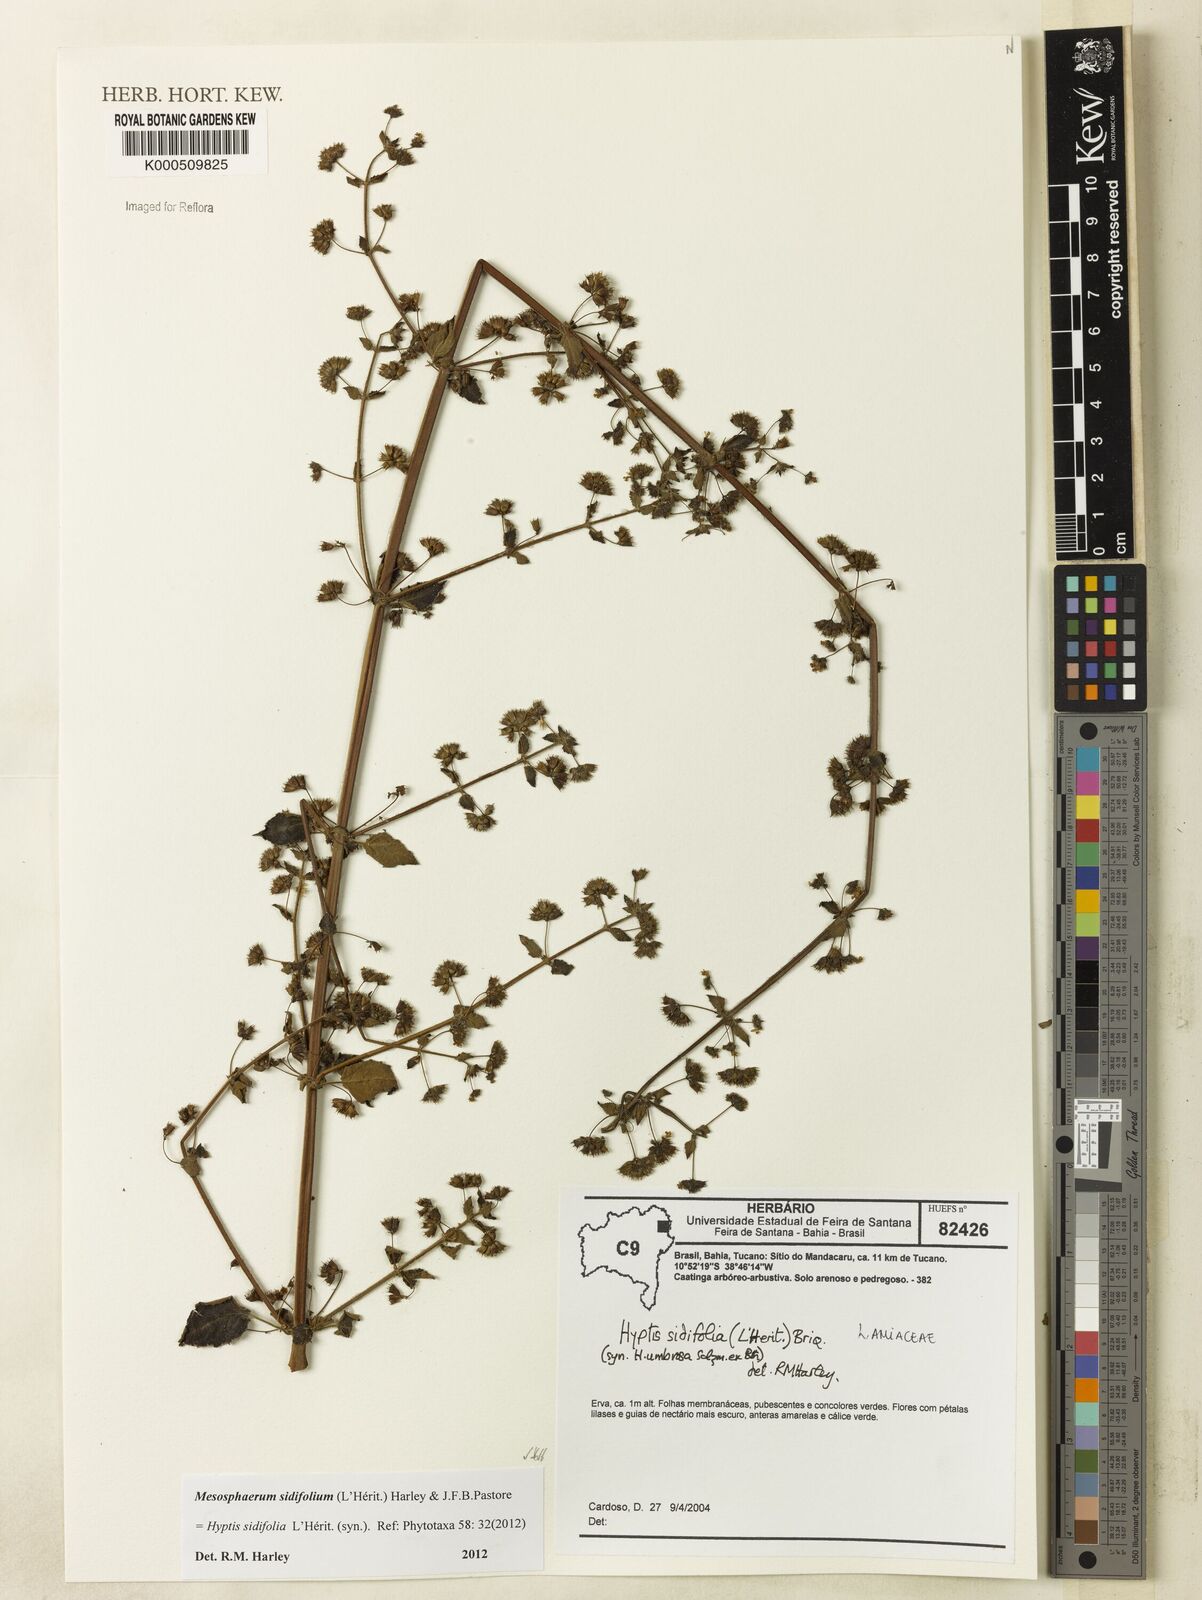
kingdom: Plantae
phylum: Tracheophyta
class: Magnoliopsida
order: Lamiales
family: Lamiaceae
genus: Mesosphaerum
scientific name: Mesosphaerum sidifolium
